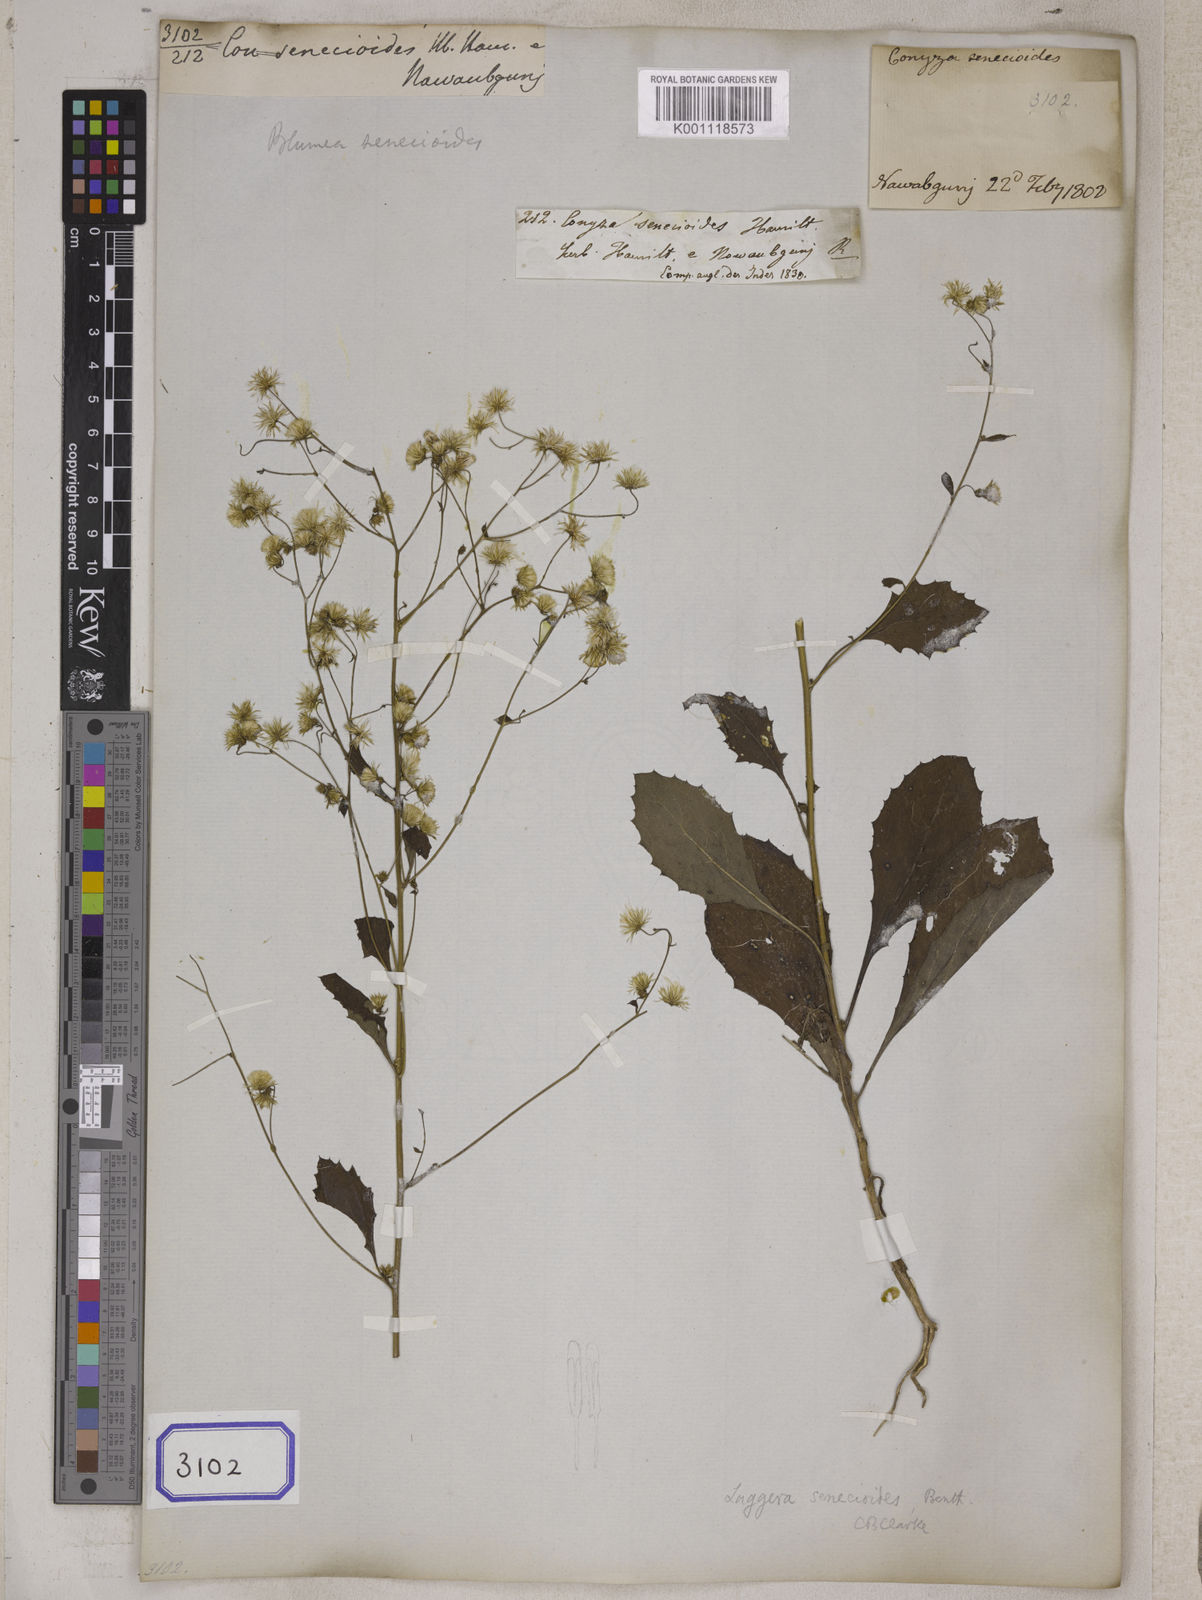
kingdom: Plantae
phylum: Tracheophyta
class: Magnoliopsida
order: Asterales
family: Asteraceae
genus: Laennecia
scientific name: Laennecia artemisiifolia
